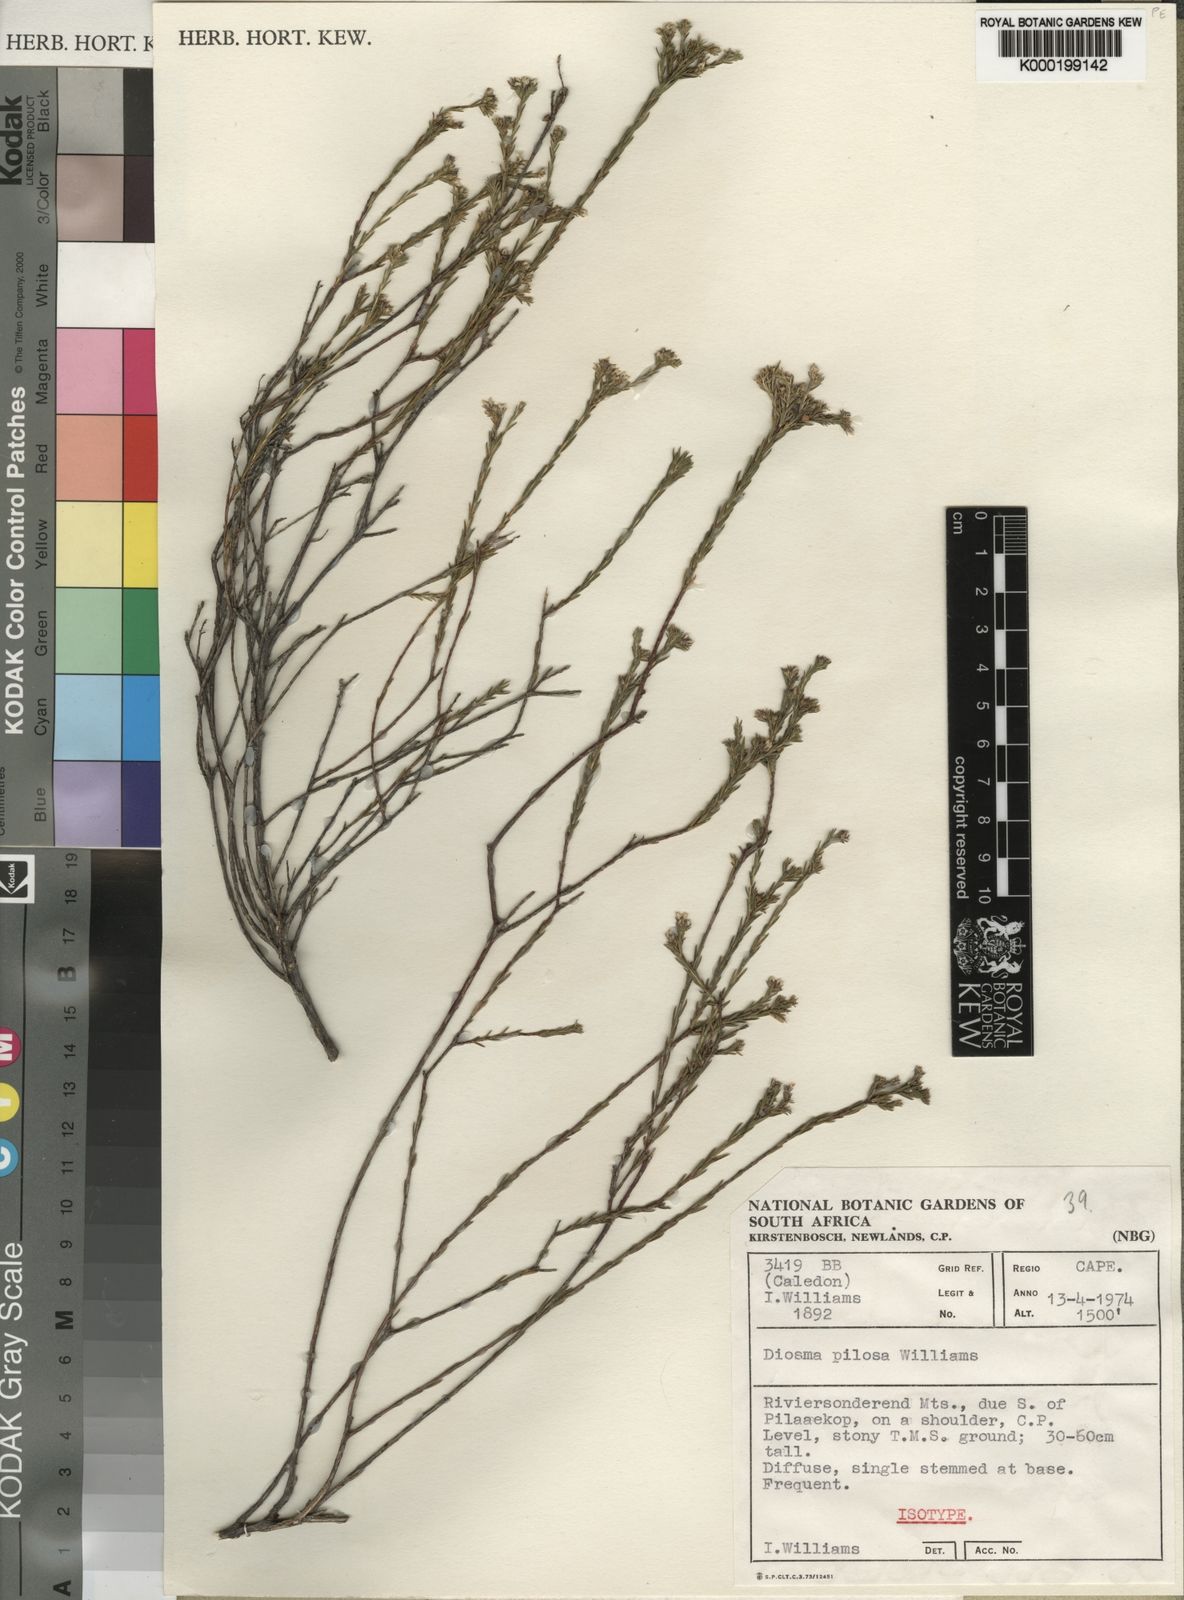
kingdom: Plantae
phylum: Tracheophyta
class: Magnoliopsida
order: Sapindales
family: Rutaceae
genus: Diosma
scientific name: Diosma pilosa
